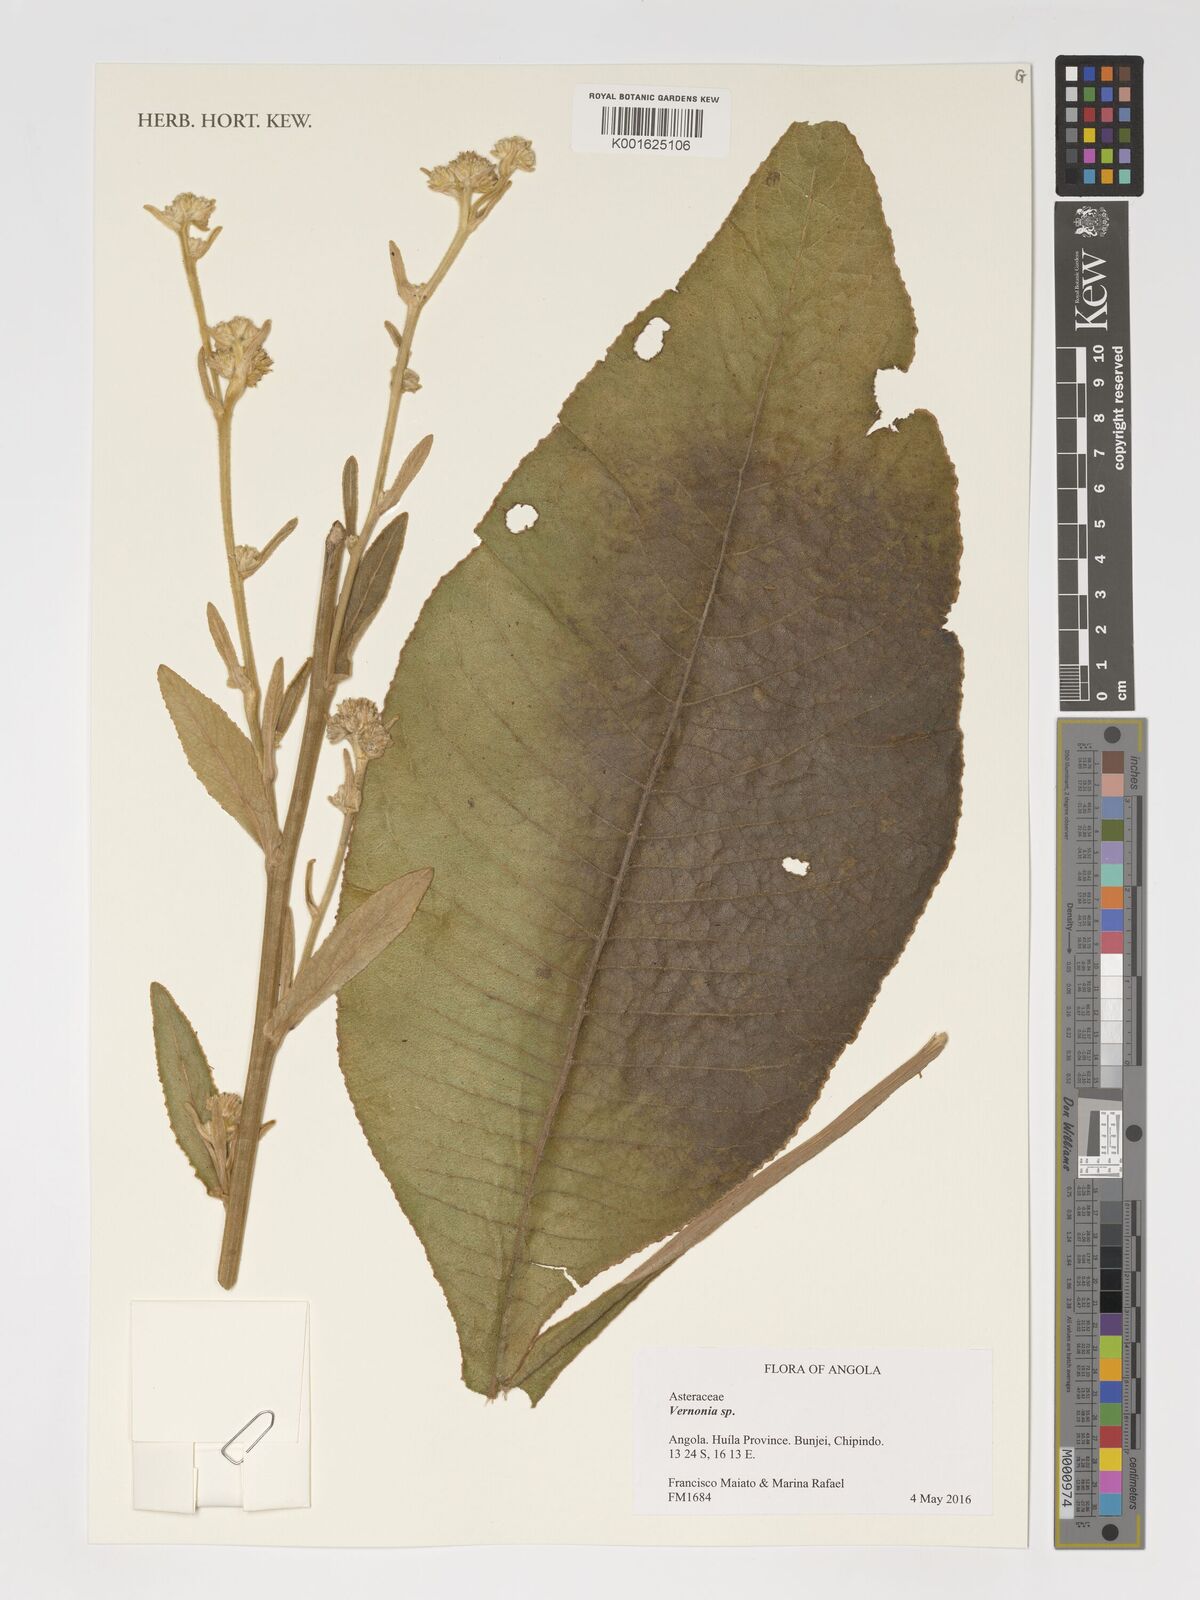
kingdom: Plantae
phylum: Tracheophyta
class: Magnoliopsida
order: Asterales
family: Asteraceae
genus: Vernonia
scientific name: Vernonia
